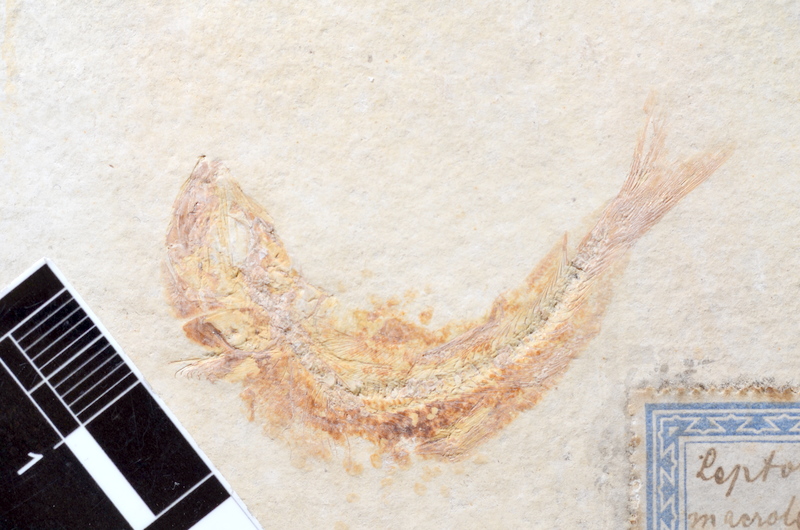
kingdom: Animalia
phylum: Chordata
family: Ascalaboidae
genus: Tharsis
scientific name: Tharsis dubius
